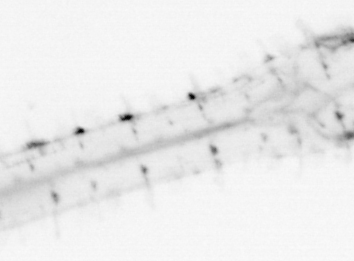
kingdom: Animalia
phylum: Chaetognatha
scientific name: Chaetognatha
